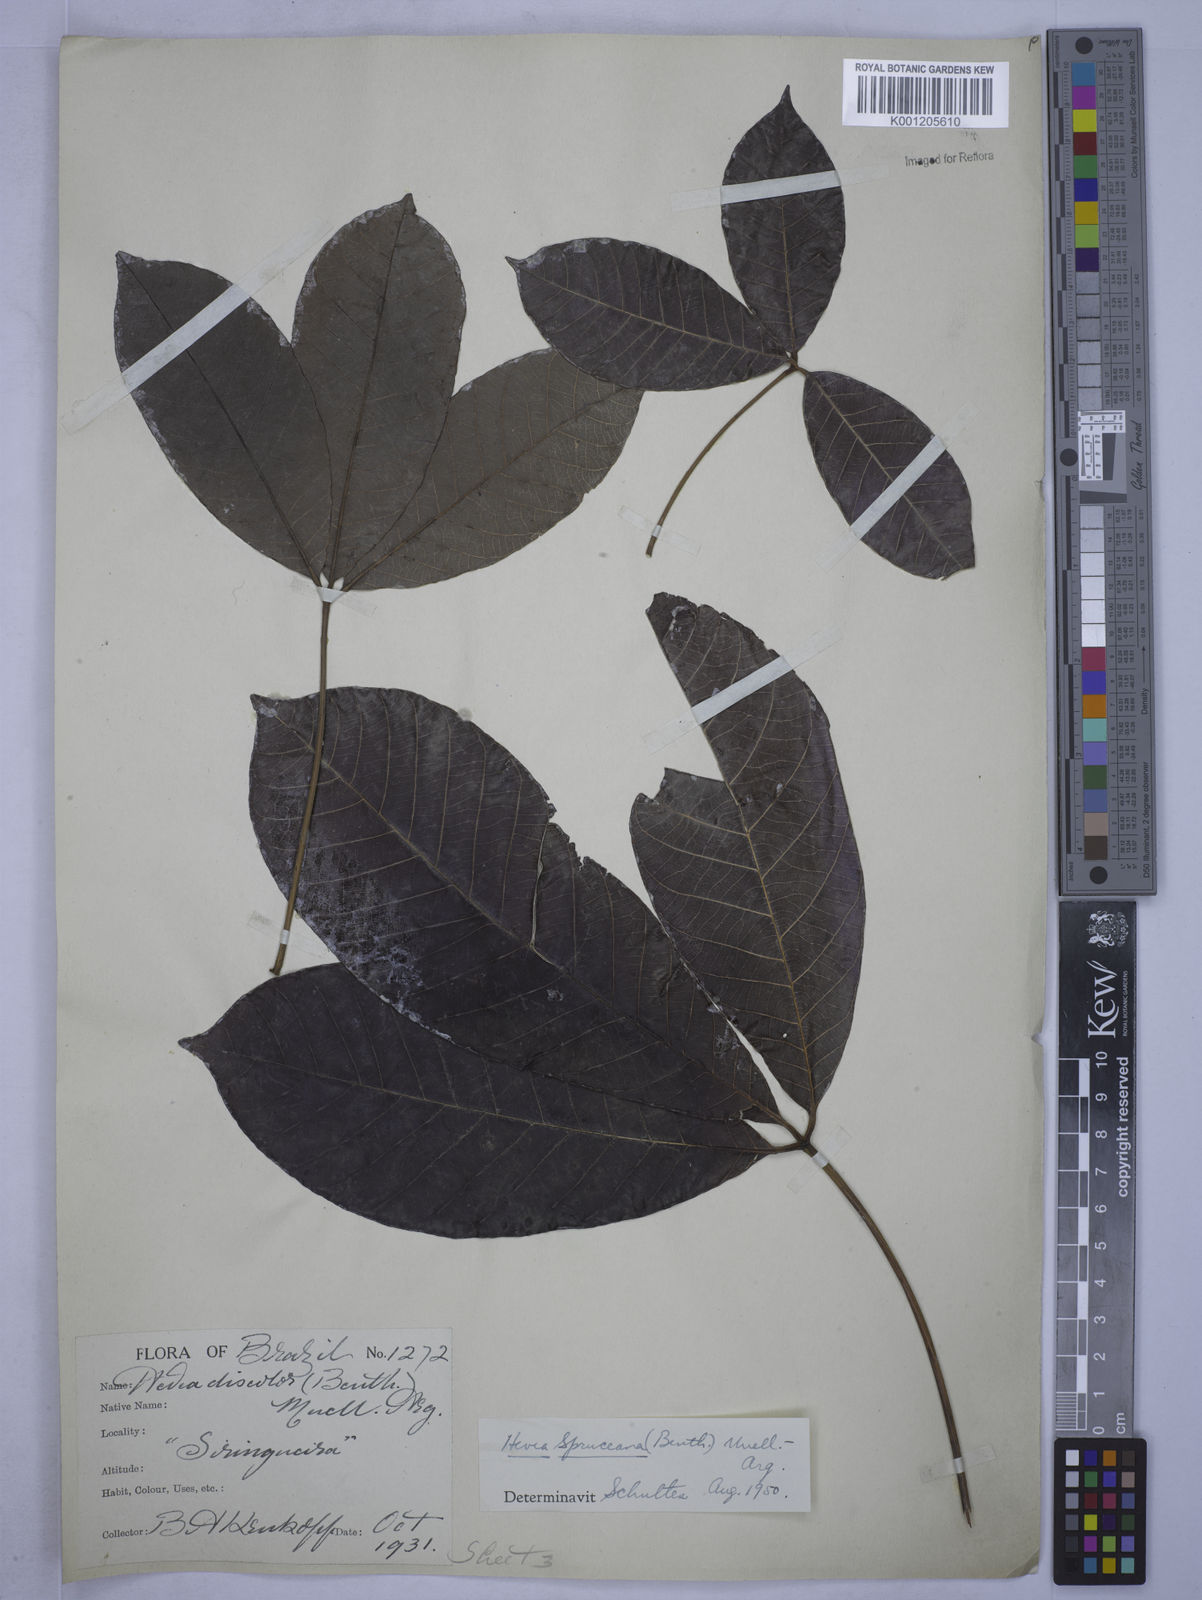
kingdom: Plantae
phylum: Tracheophyta
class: Magnoliopsida
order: Malpighiales
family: Euphorbiaceae
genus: Hevea
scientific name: Hevea
